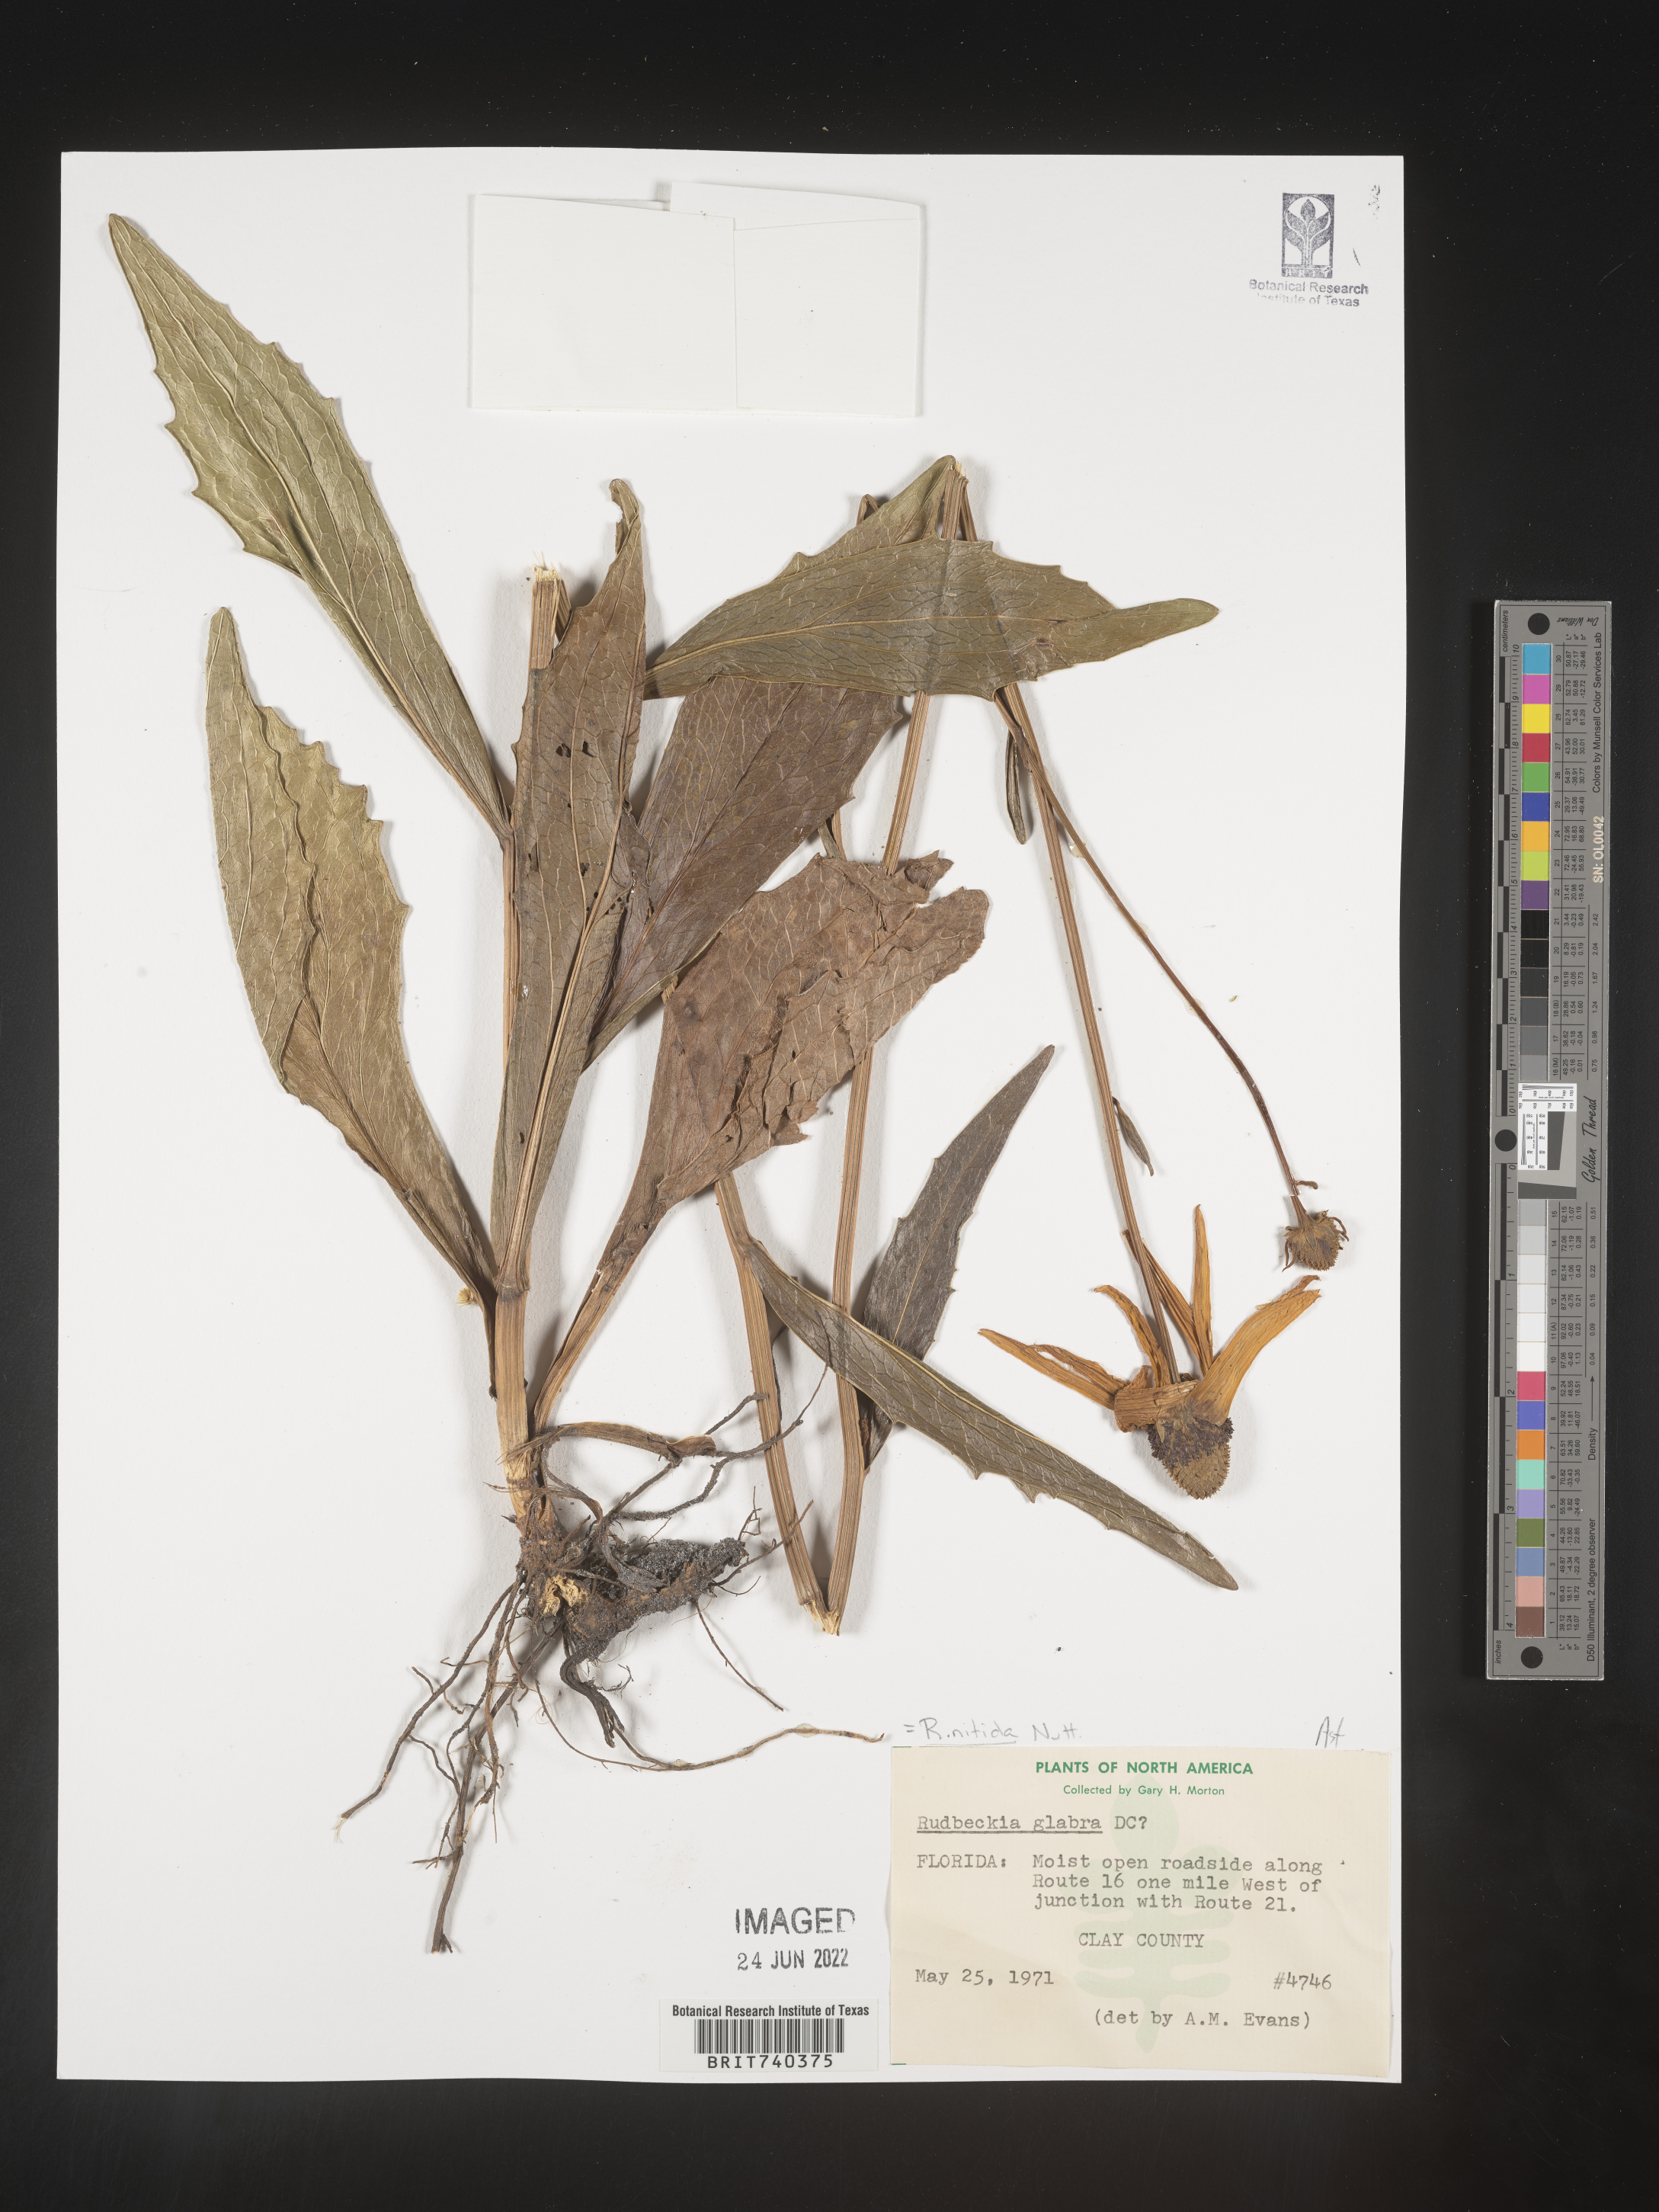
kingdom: Plantae
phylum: Tracheophyta
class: Magnoliopsida
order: Asterales
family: Asteraceae
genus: Rudbeckia
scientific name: Rudbeckia nitida
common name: Black-eyed-susan
